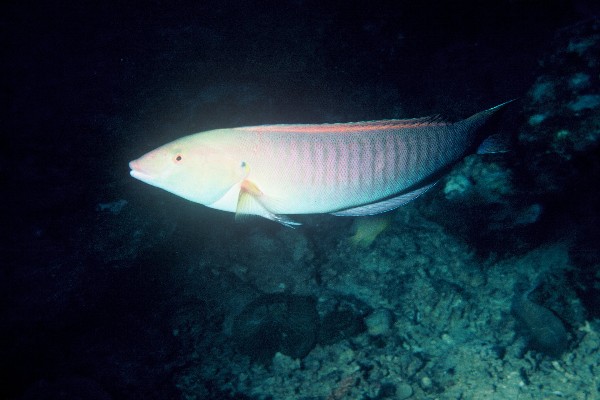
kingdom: Animalia
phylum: Chordata
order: Perciformes
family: Labridae
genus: Hologymnosus
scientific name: Hologymnosus doliatus
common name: Pastel ringwrasse
